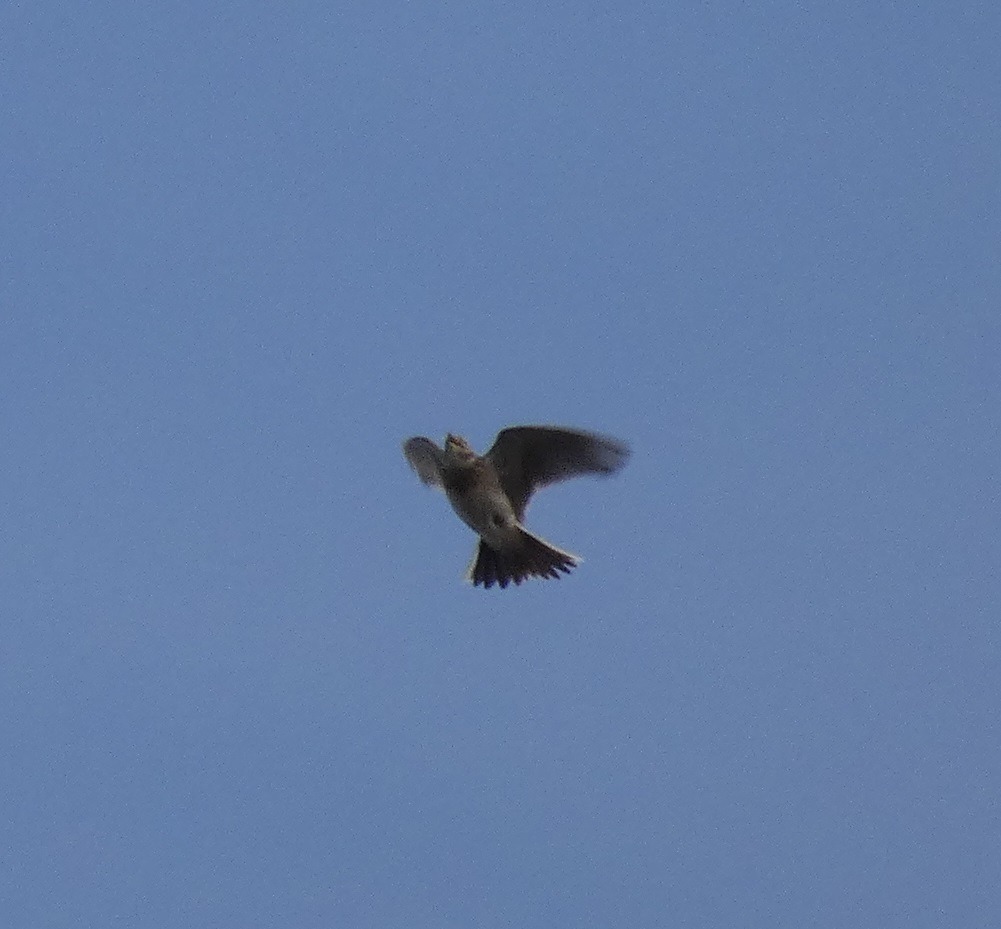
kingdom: Animalia
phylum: Chordata
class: Aves
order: Passeriformes
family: Alaudidae
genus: Alauda
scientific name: Alauda arvensis
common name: Sanglærke
